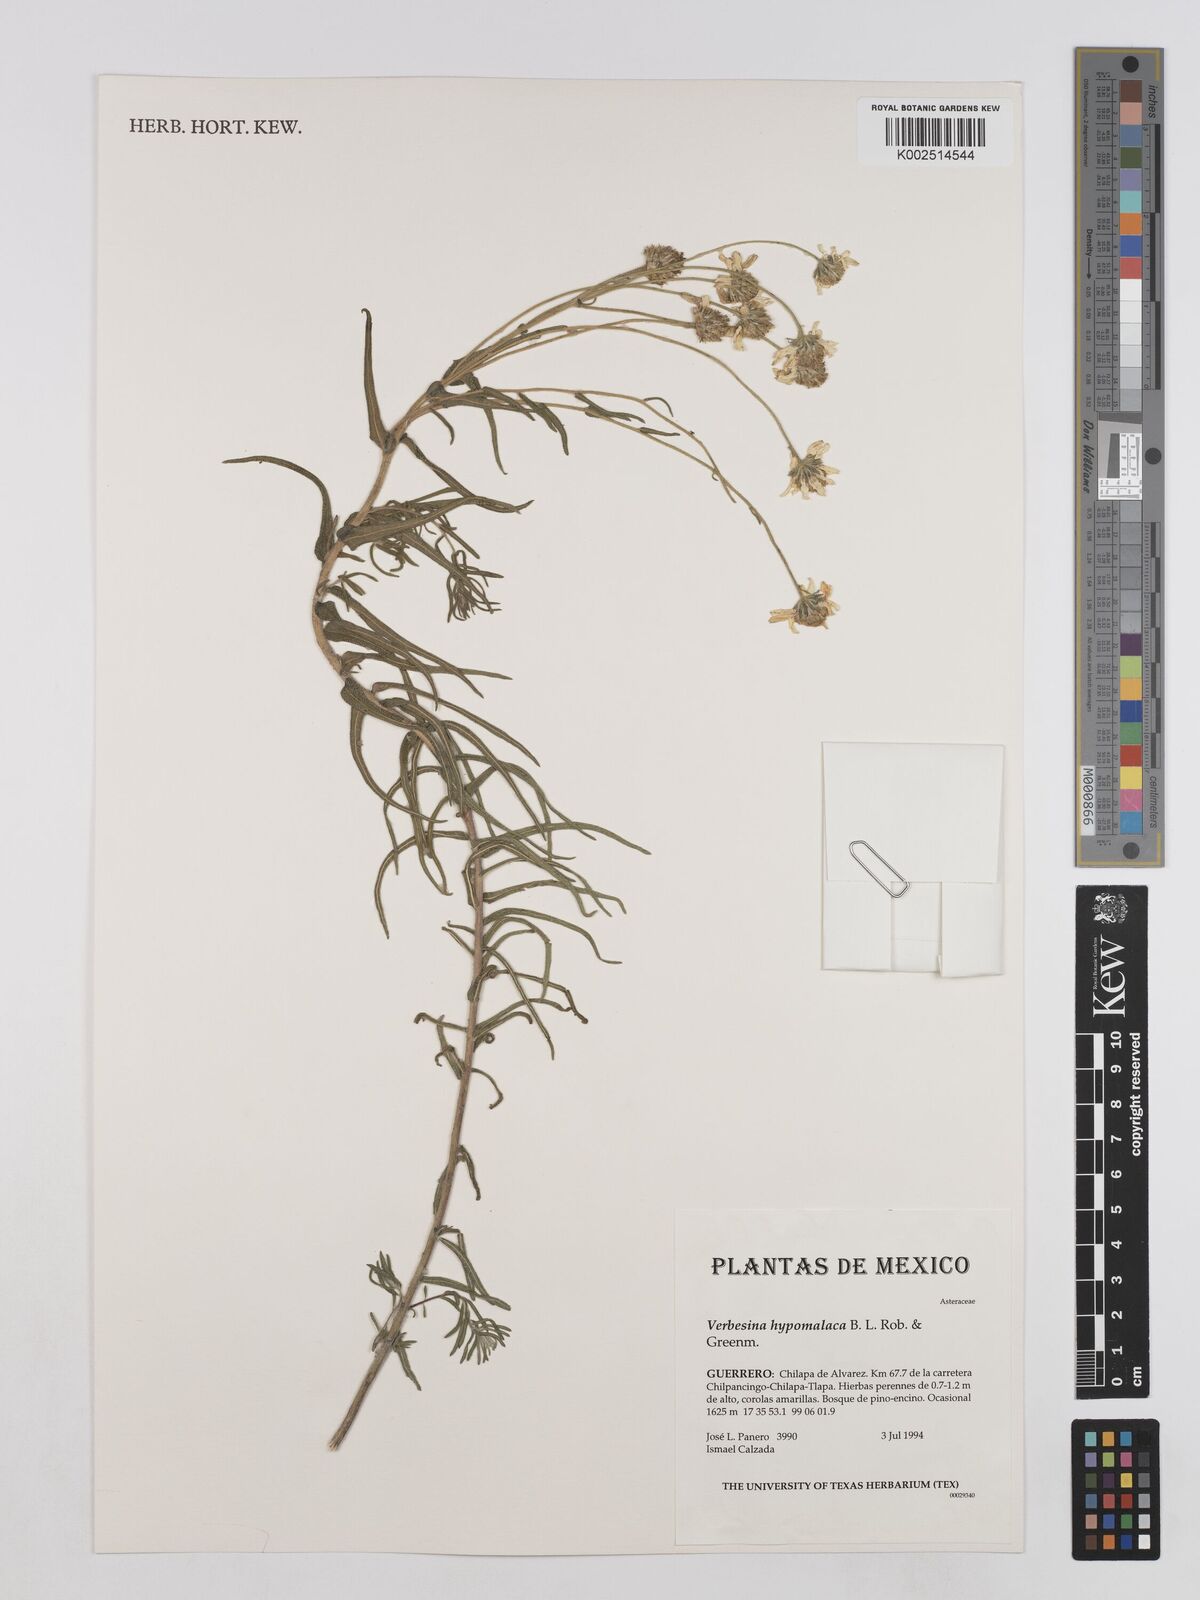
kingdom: Plantae
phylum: Tracheophyta
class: Magnoliopsida
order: Asterales
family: Asteraceae
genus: Verbesina
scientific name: Verbesina hypomalaca
